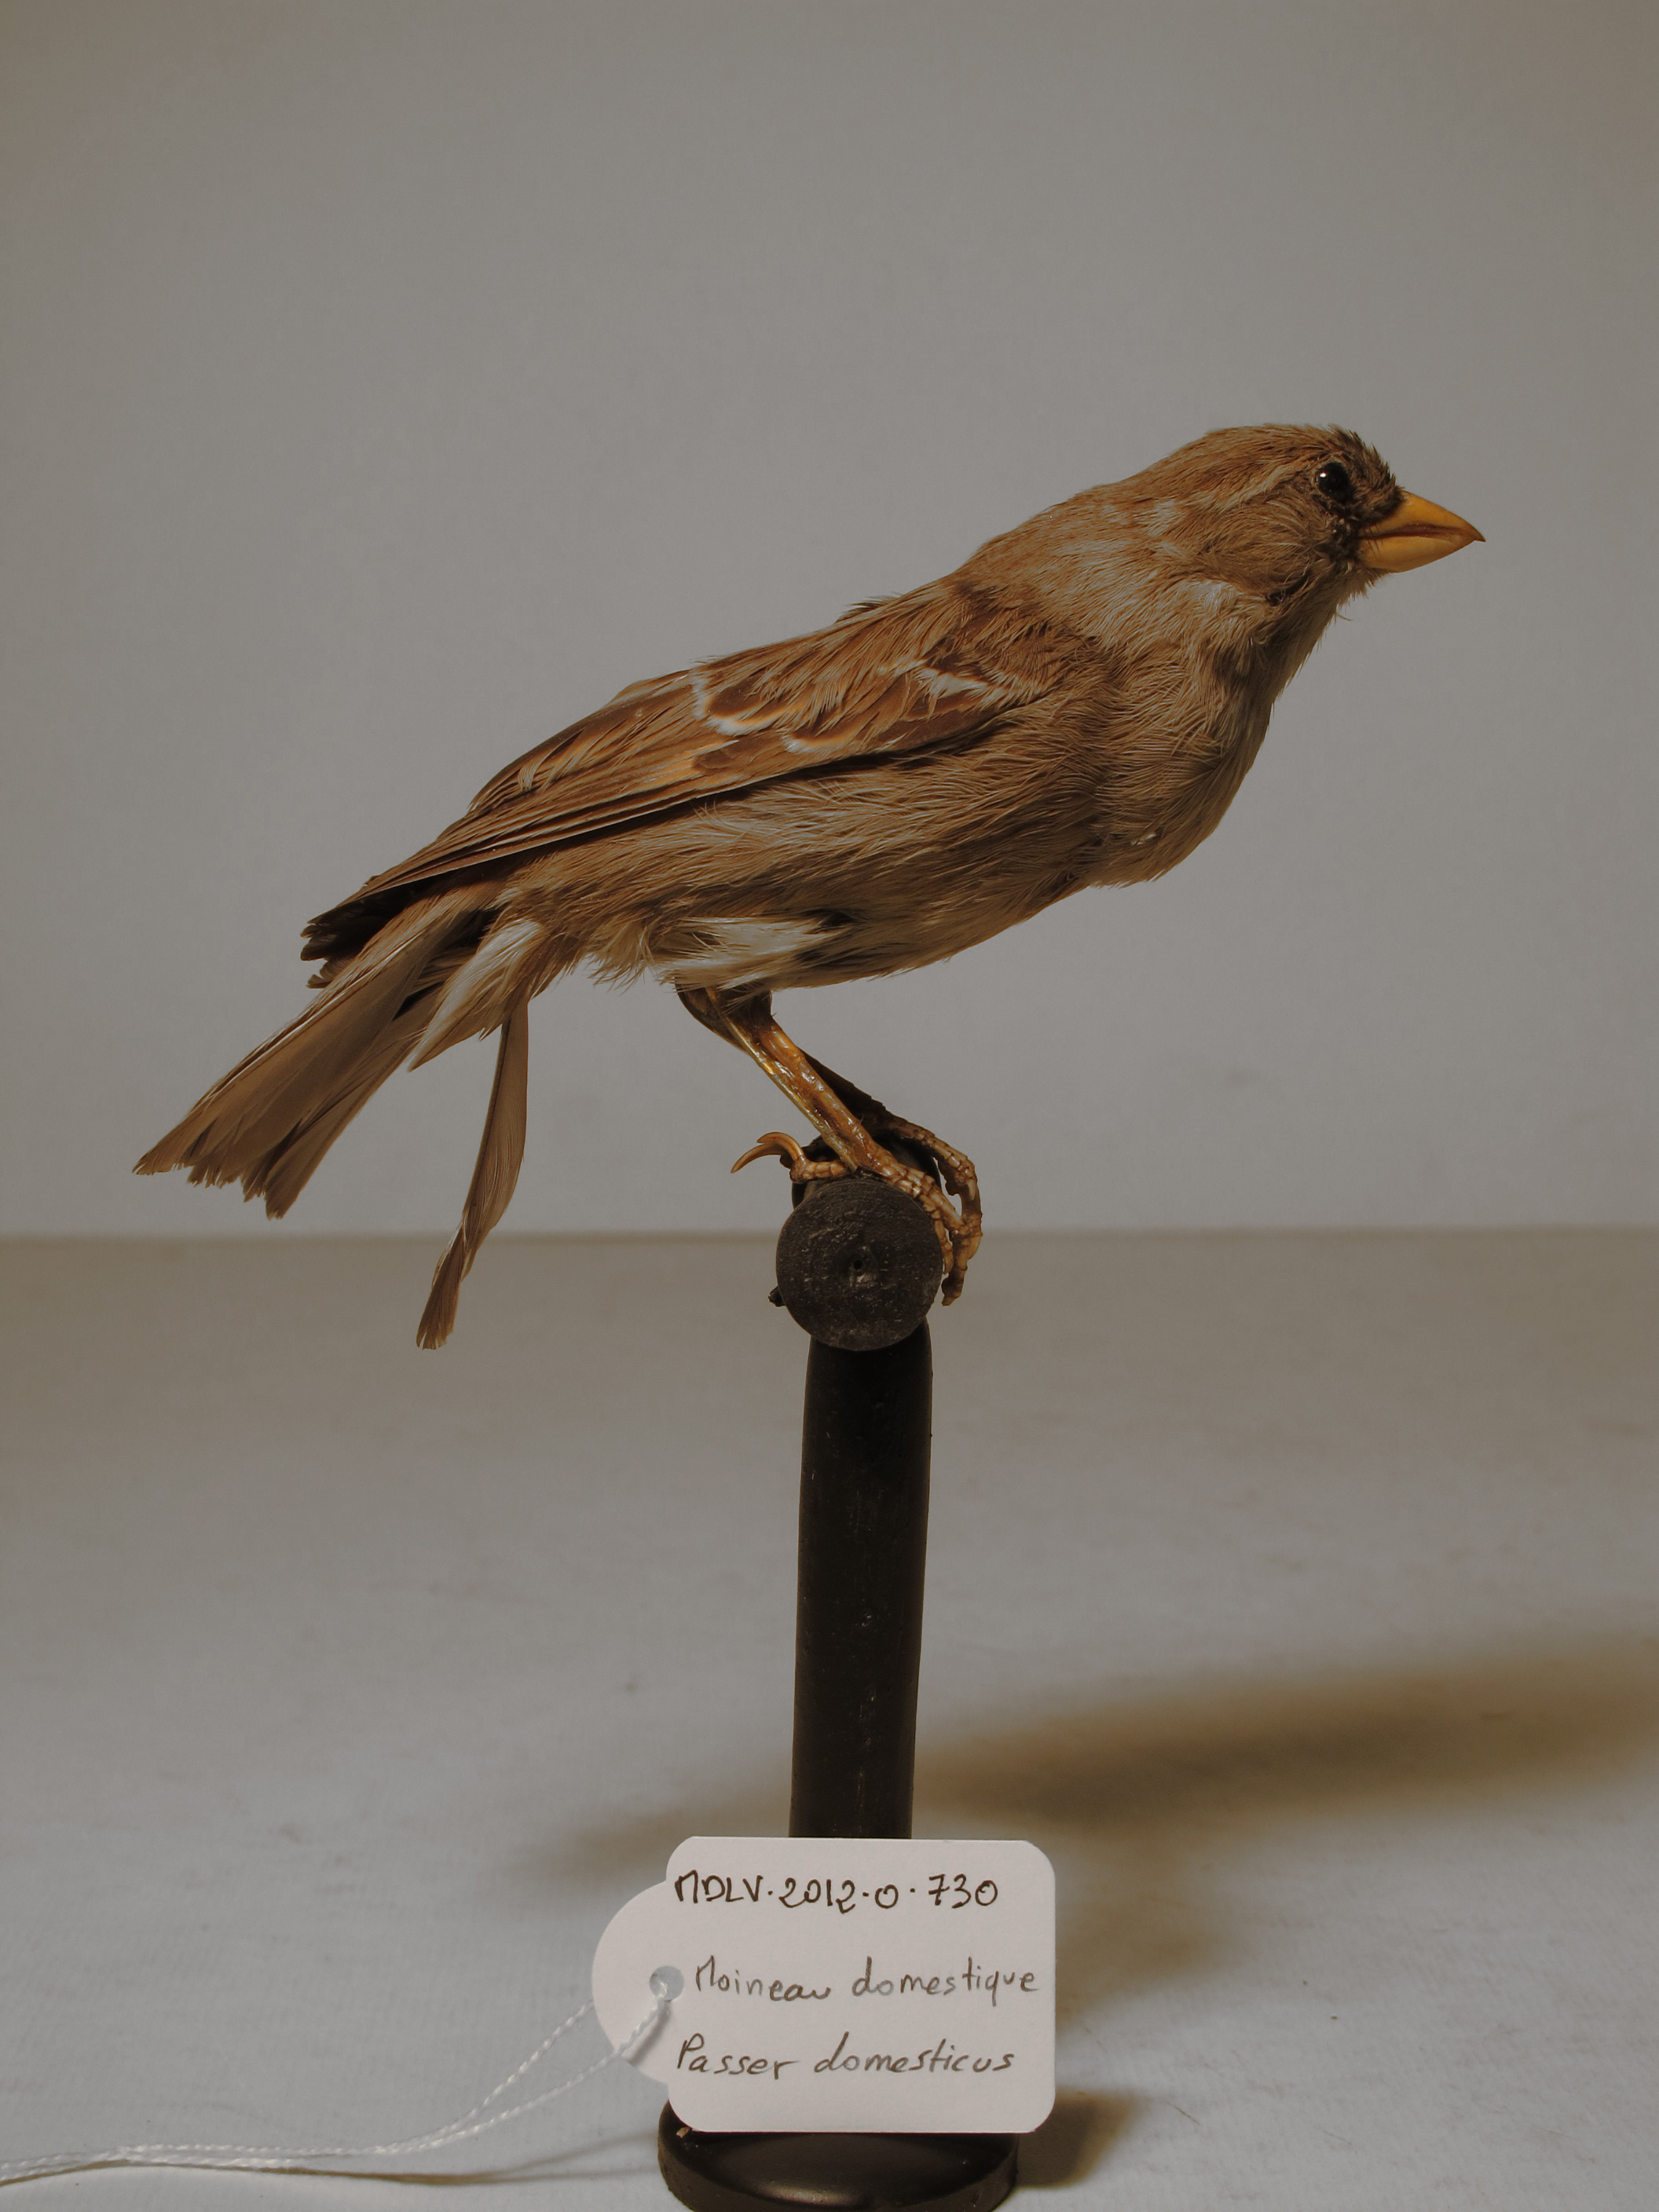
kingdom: Animalia
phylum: Chordata
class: Aves
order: Passeriformes
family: Passeridae
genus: Passer
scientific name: Passer domesticus
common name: House Sparrow
